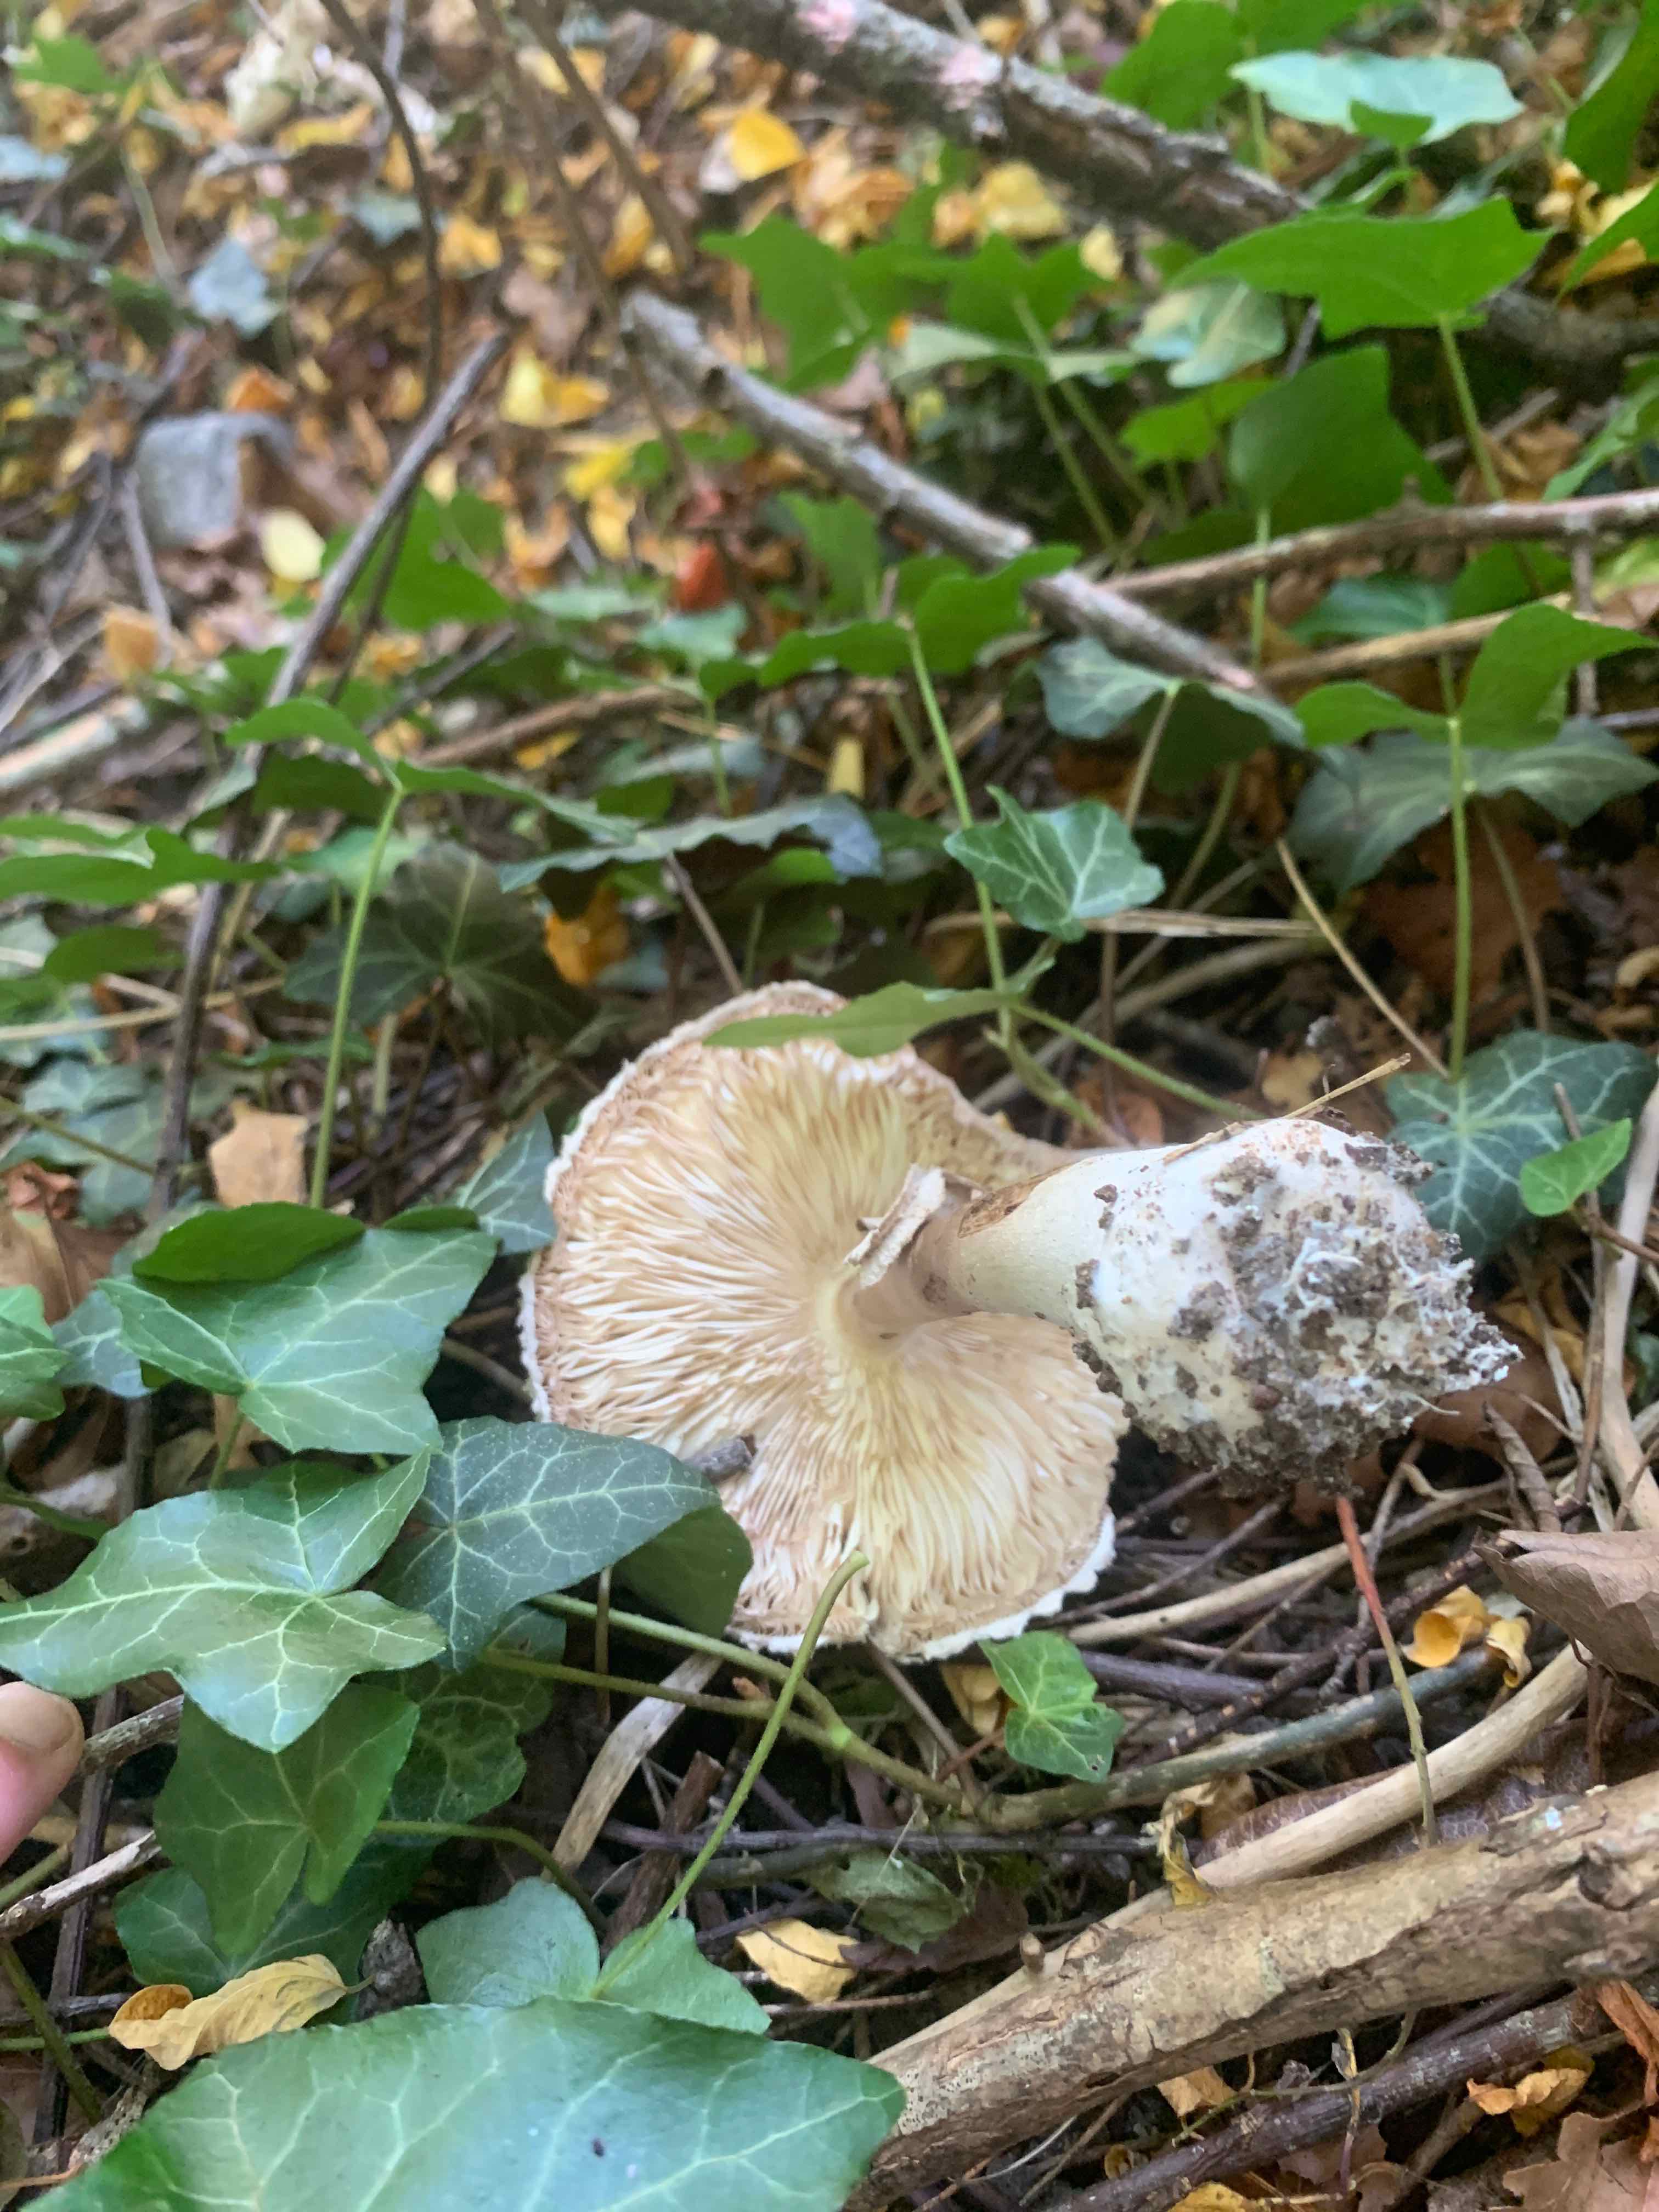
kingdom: Fungi
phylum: Basidiomycota
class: Agaricomycetes
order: Agaricales
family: Agaricaceae
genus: Chlorophyllum
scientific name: Chlorophyllum brunneum
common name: giftig rabarberhat
